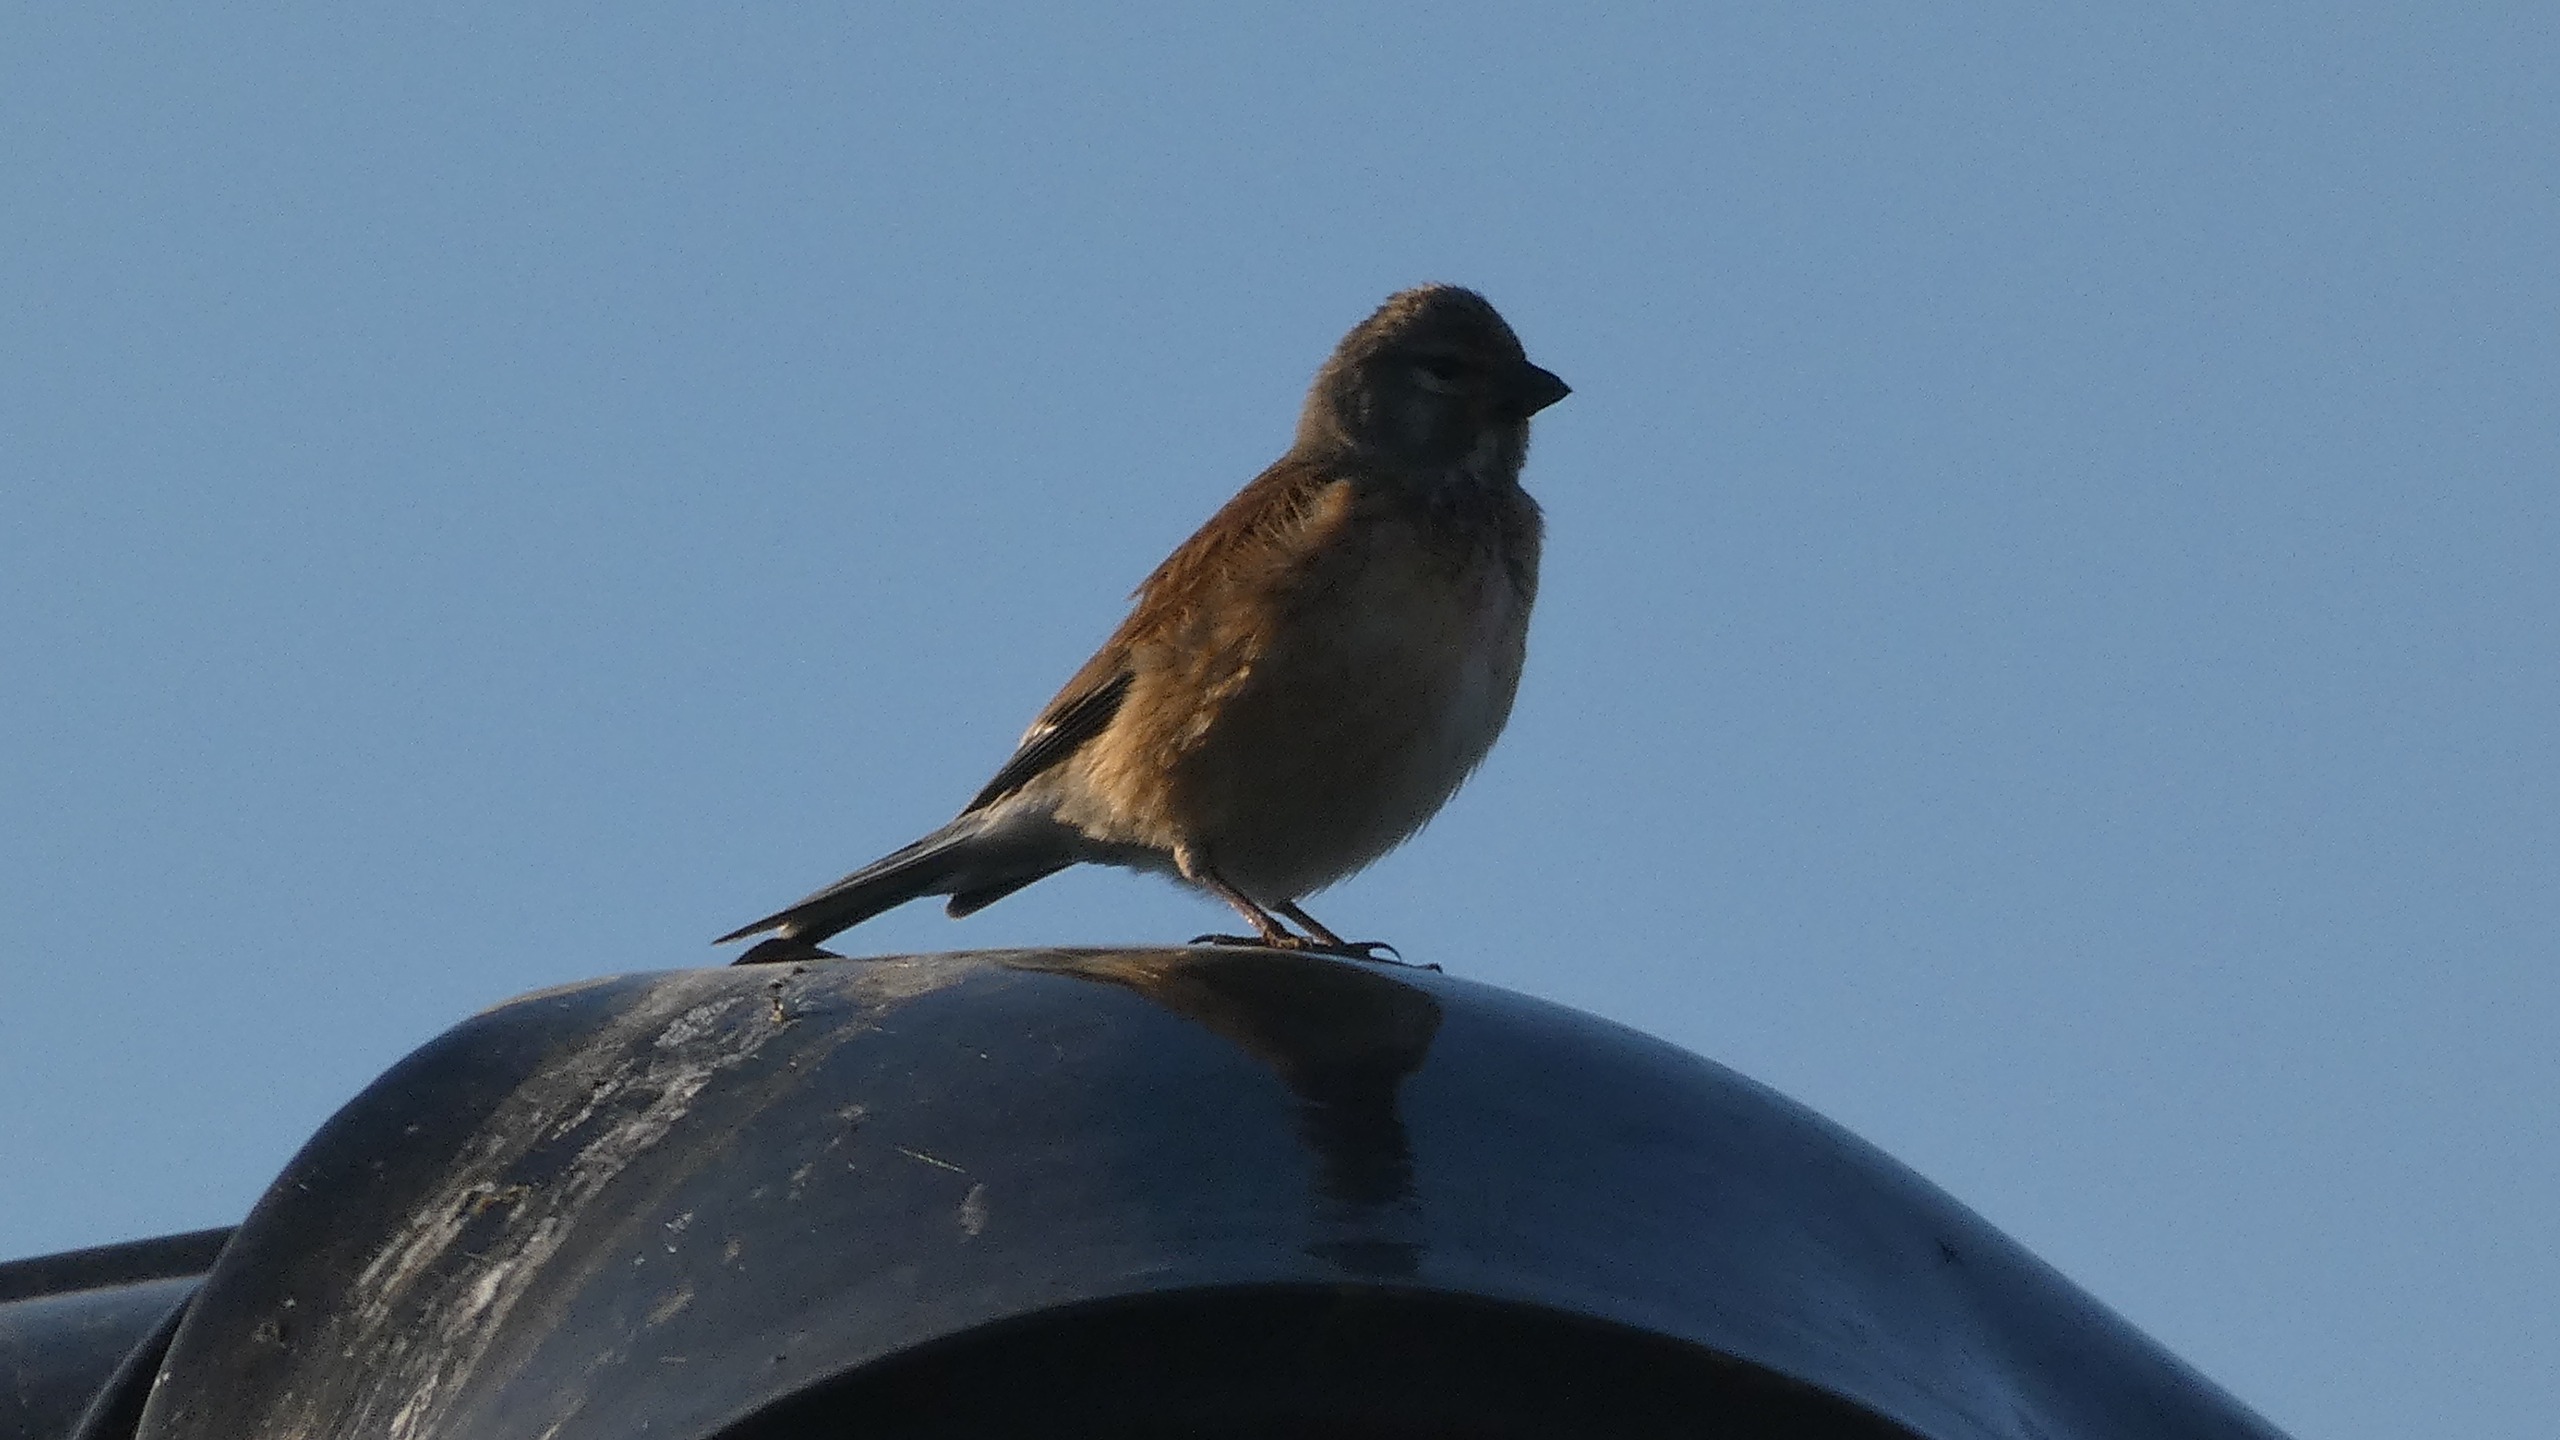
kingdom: Animalia
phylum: Chordata
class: Aves
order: Passeriformes
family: Fringillidae
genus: Linaria
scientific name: Linaria cannabina
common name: Tornirisk
